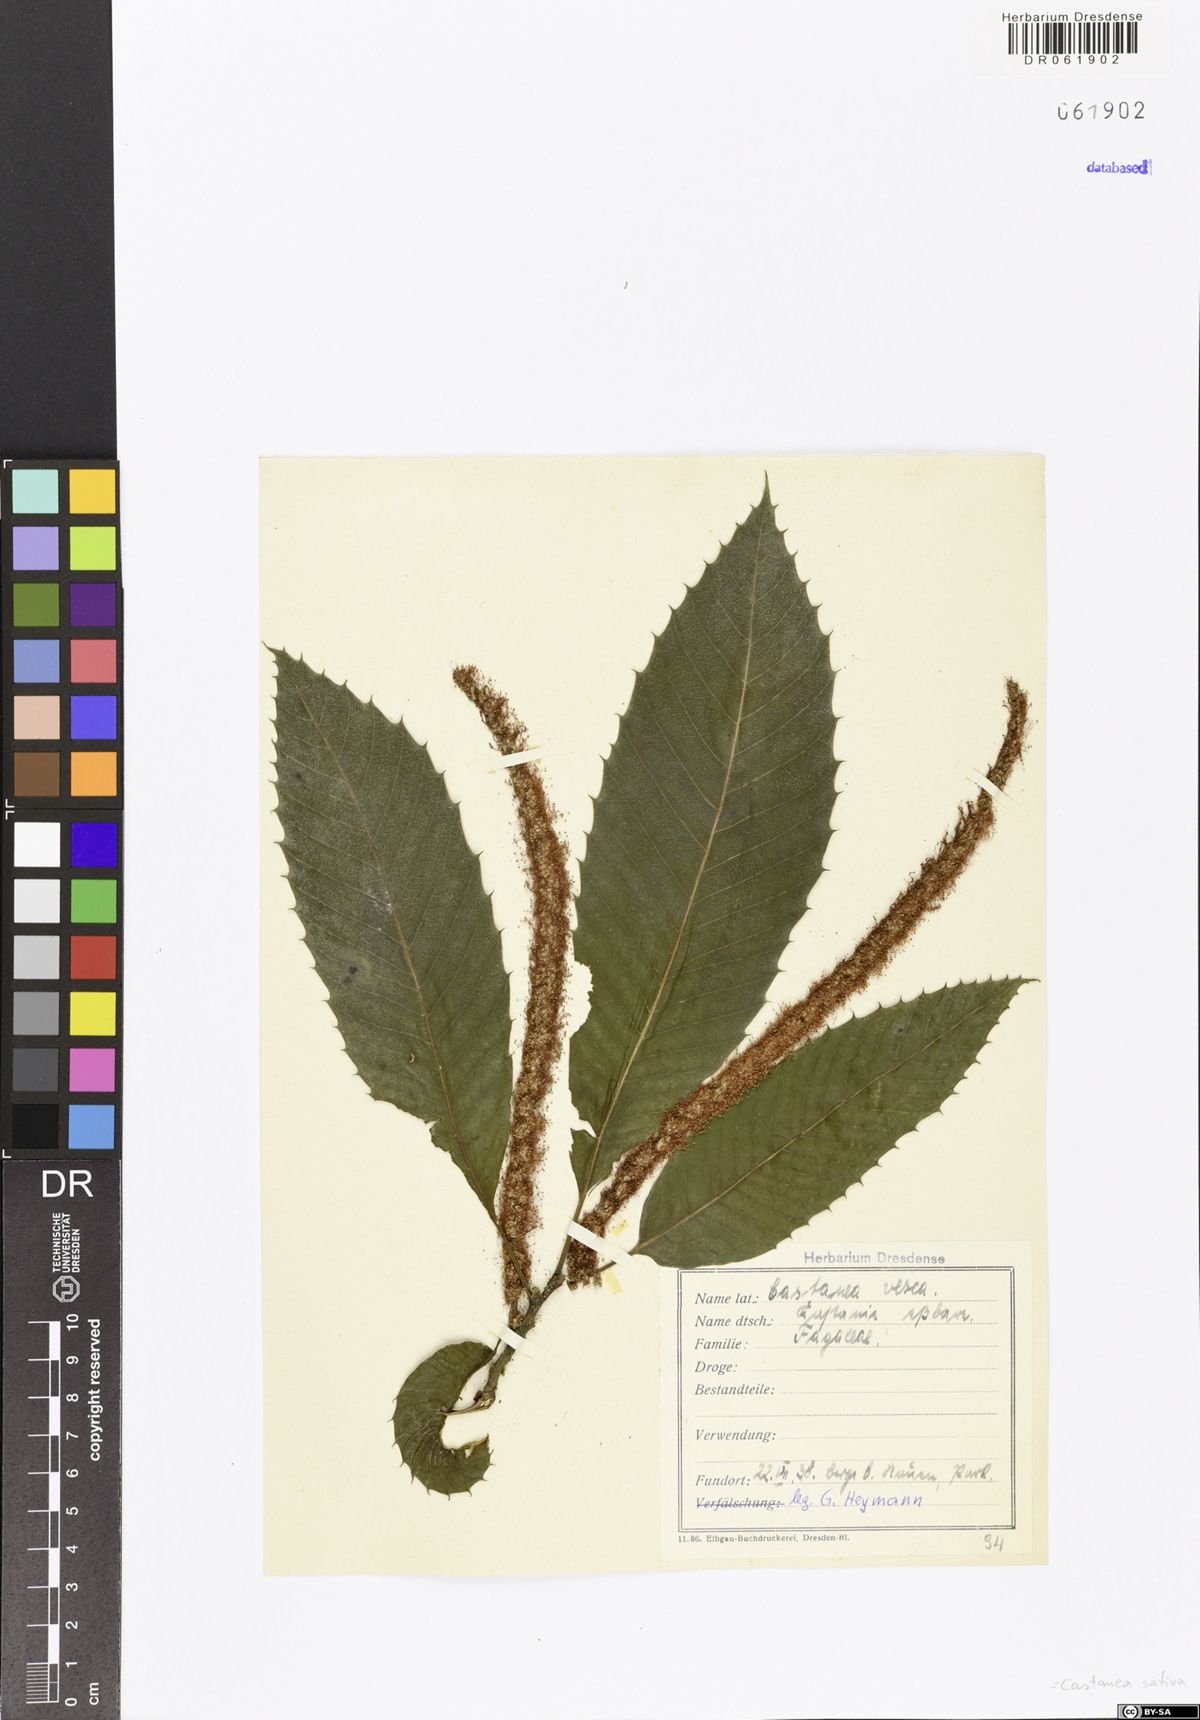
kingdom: Plantae
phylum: Tracheophyta
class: Magnoliopsida
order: Fagales
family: Fagaceae
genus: Castanea
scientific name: Castanea sativa
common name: Sweet chestnut
